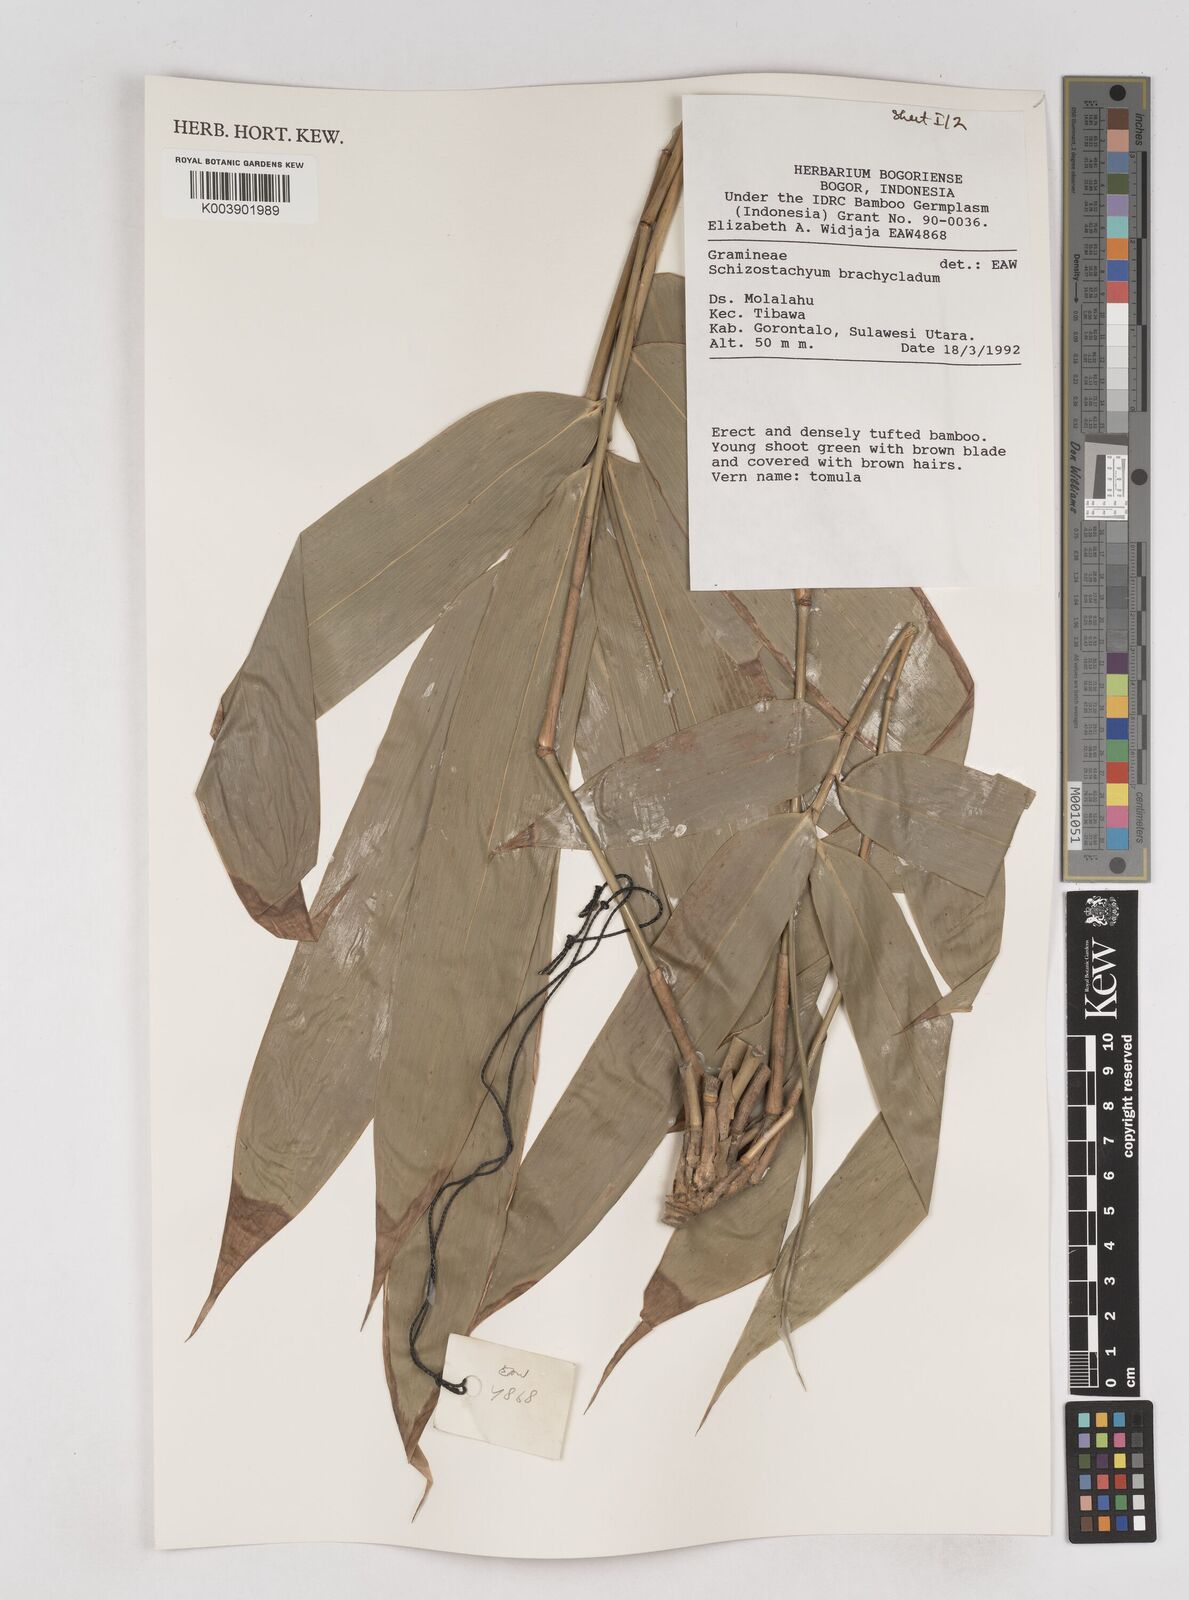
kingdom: Plantae
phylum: Tracheophyta
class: Liliopsida
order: Poales
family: Poaceae
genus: Schizostachyum
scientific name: Schizostachyum brachycladum
